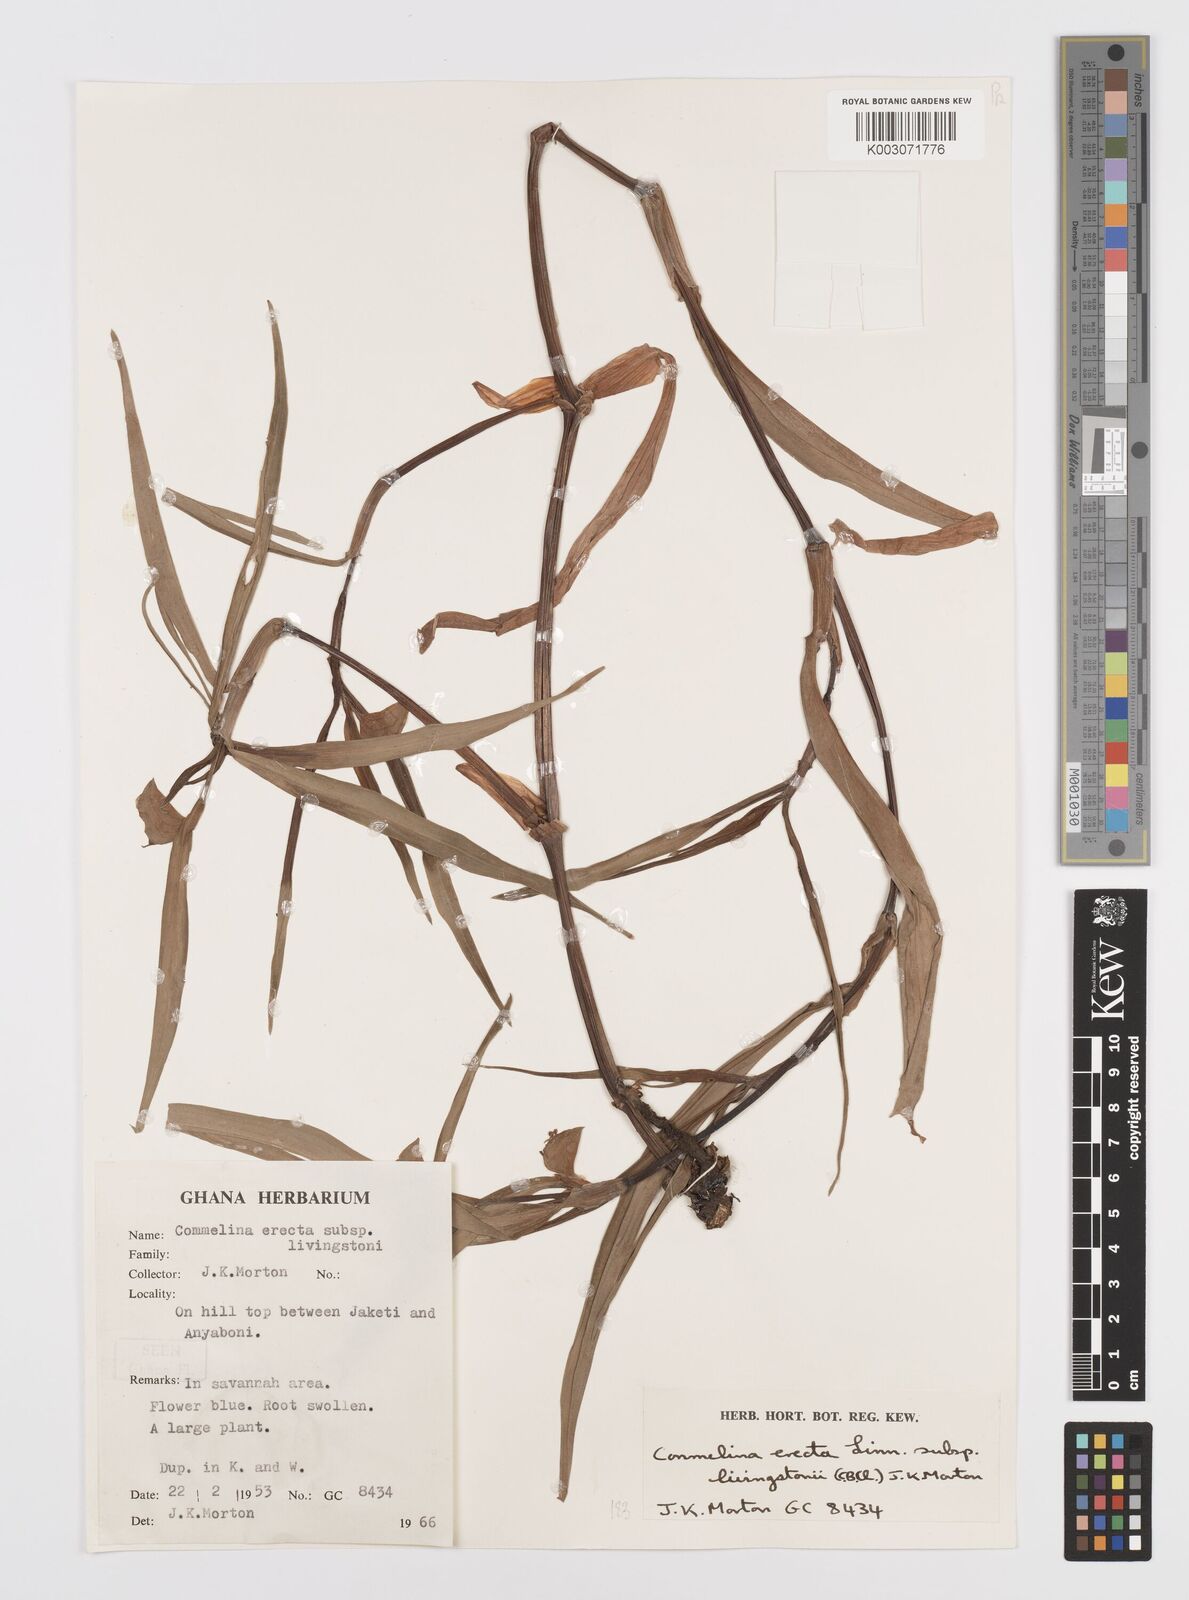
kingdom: Plantae
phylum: Tracheophyta
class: Liliopsida
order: Commelinales
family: Commelinaceae
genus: Commelina
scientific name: Commelina erecta
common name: Blousel blommetjie
